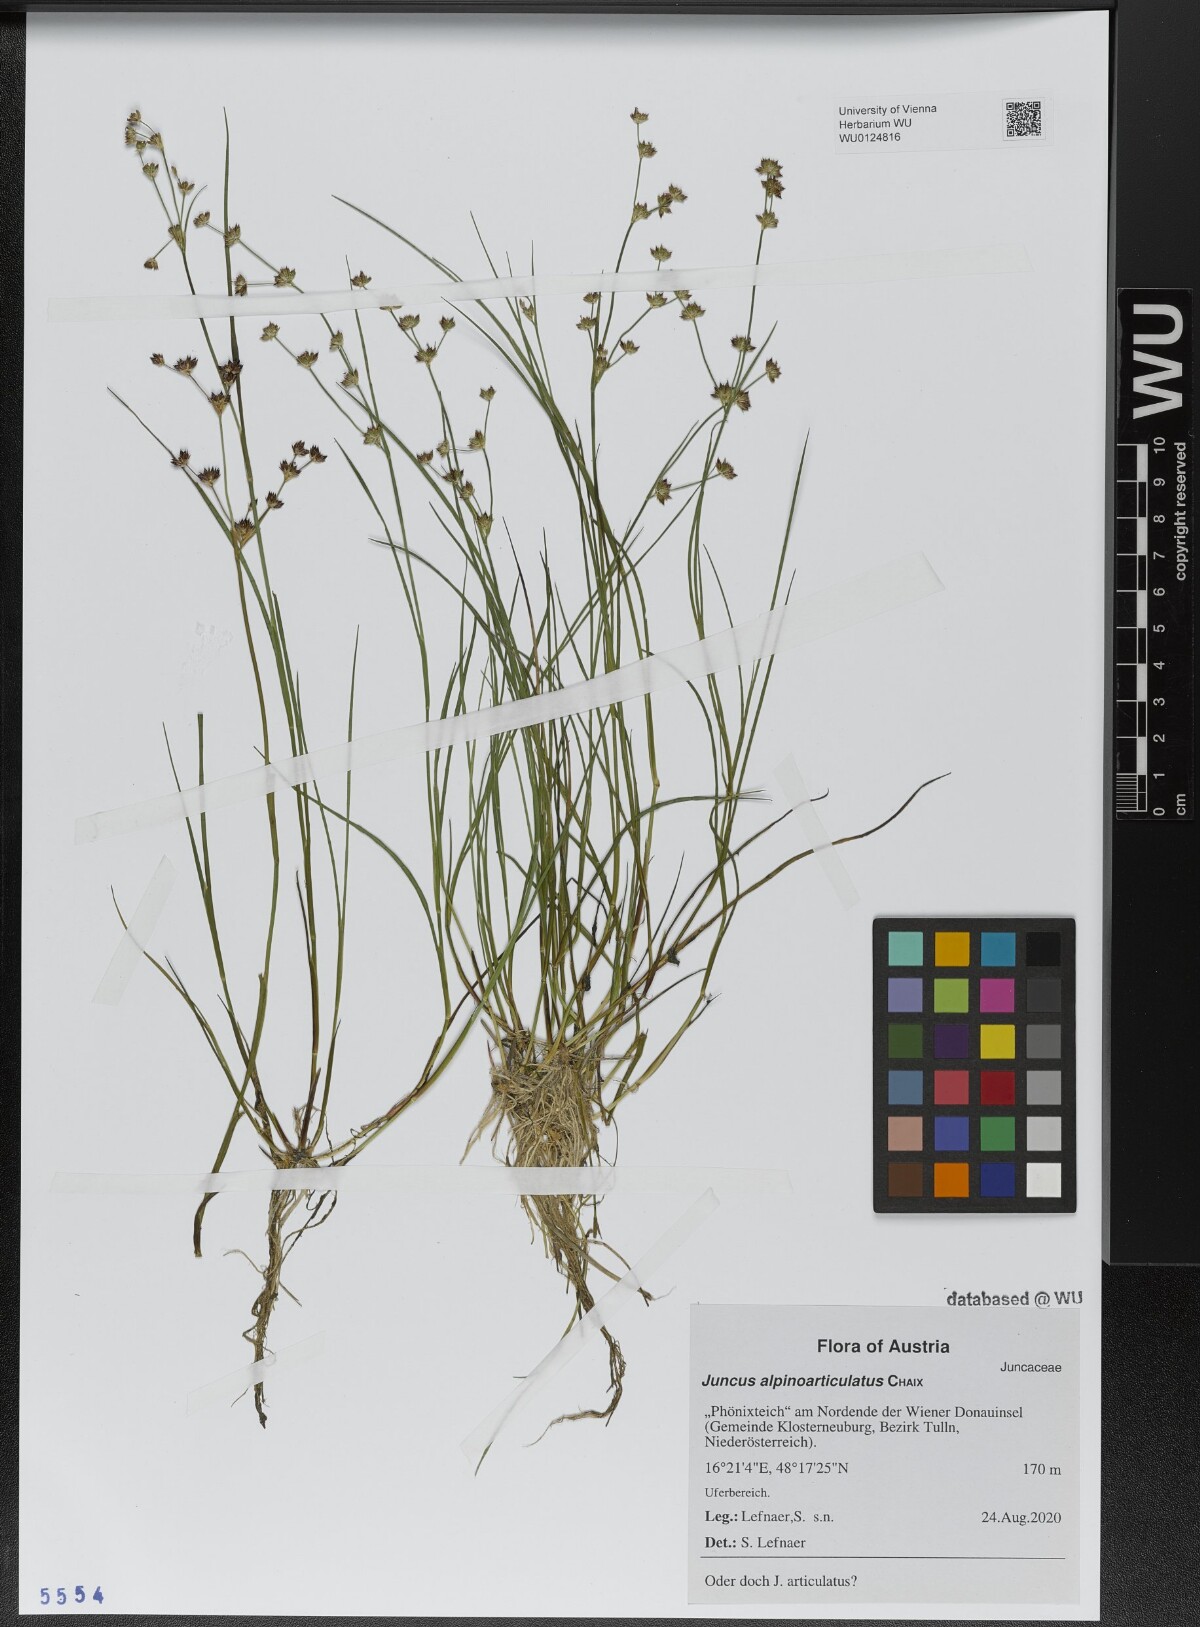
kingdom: Plantae
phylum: Tracheophyta
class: Liliopsida
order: Poales
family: Juncaceae
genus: Juncus
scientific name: Juncus alpinoarticulatus
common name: Alpine rush
